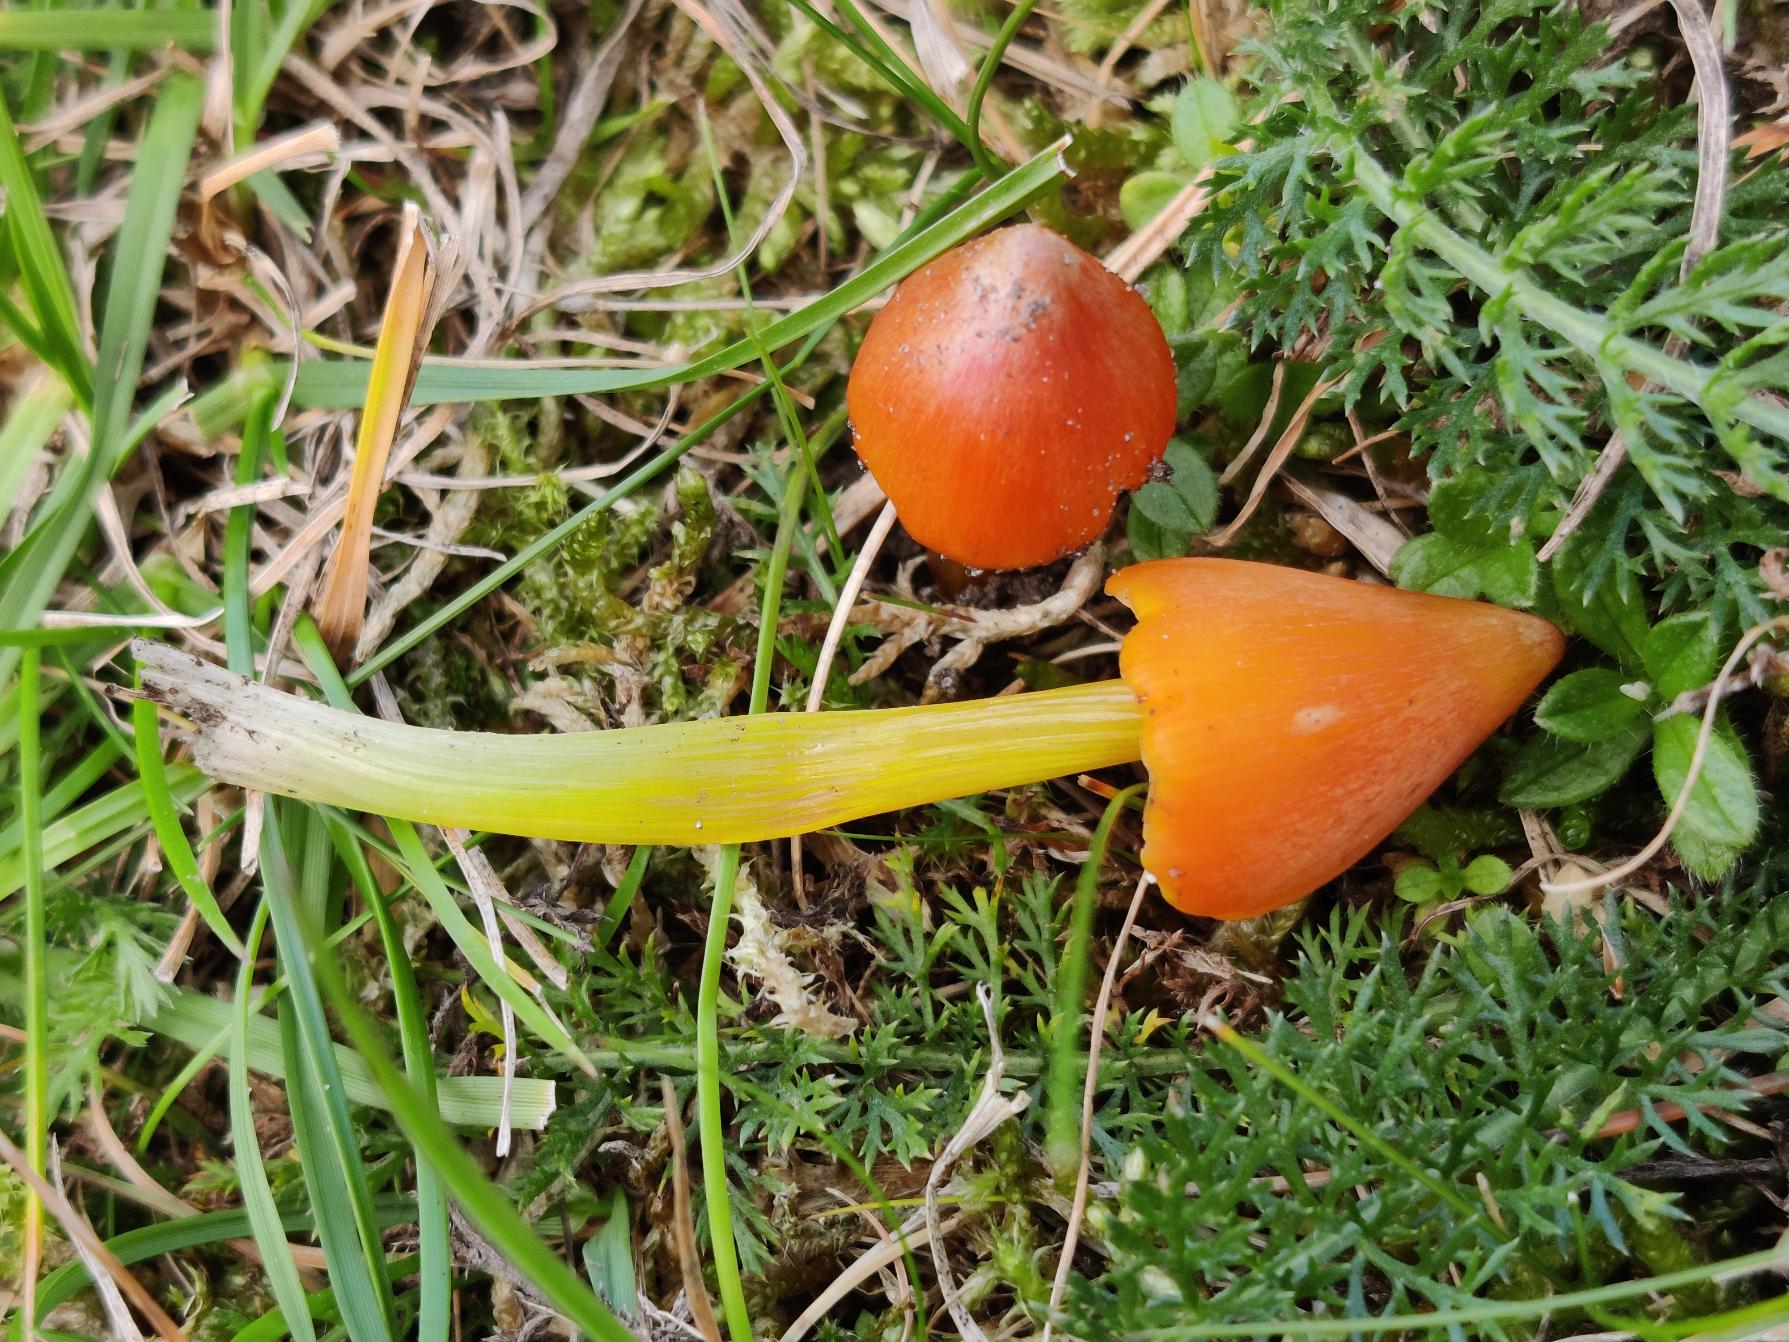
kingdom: Fungi
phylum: Basidiomycota
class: Agaricomycetes
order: Agaricales
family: Hygrophoraceae
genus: Hygrocybe
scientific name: Hygrocybe conica
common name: Kegle-vokshat
